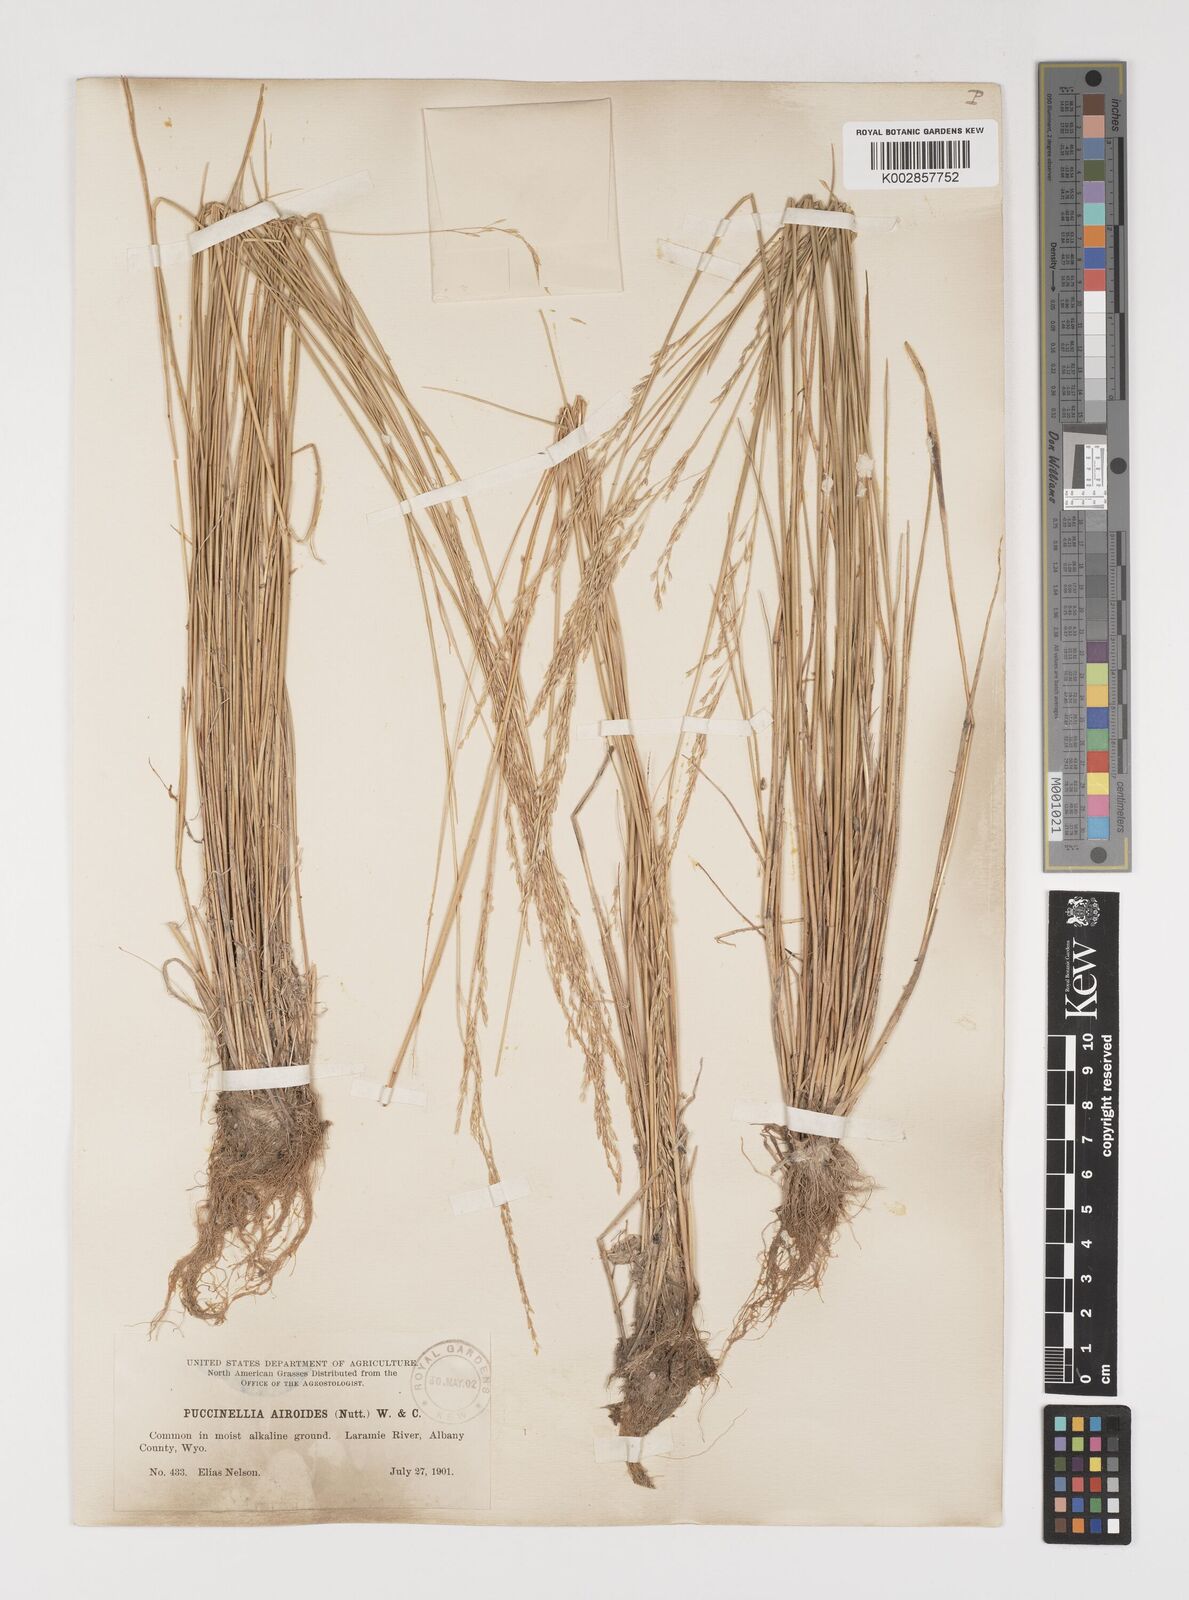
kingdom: Plantae
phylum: Tracheophyta
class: Liliopsida
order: Poales
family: Poaceae
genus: Puccinellia
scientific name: Puccinellia nuttalliana
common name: Nuttall's alkali grass
